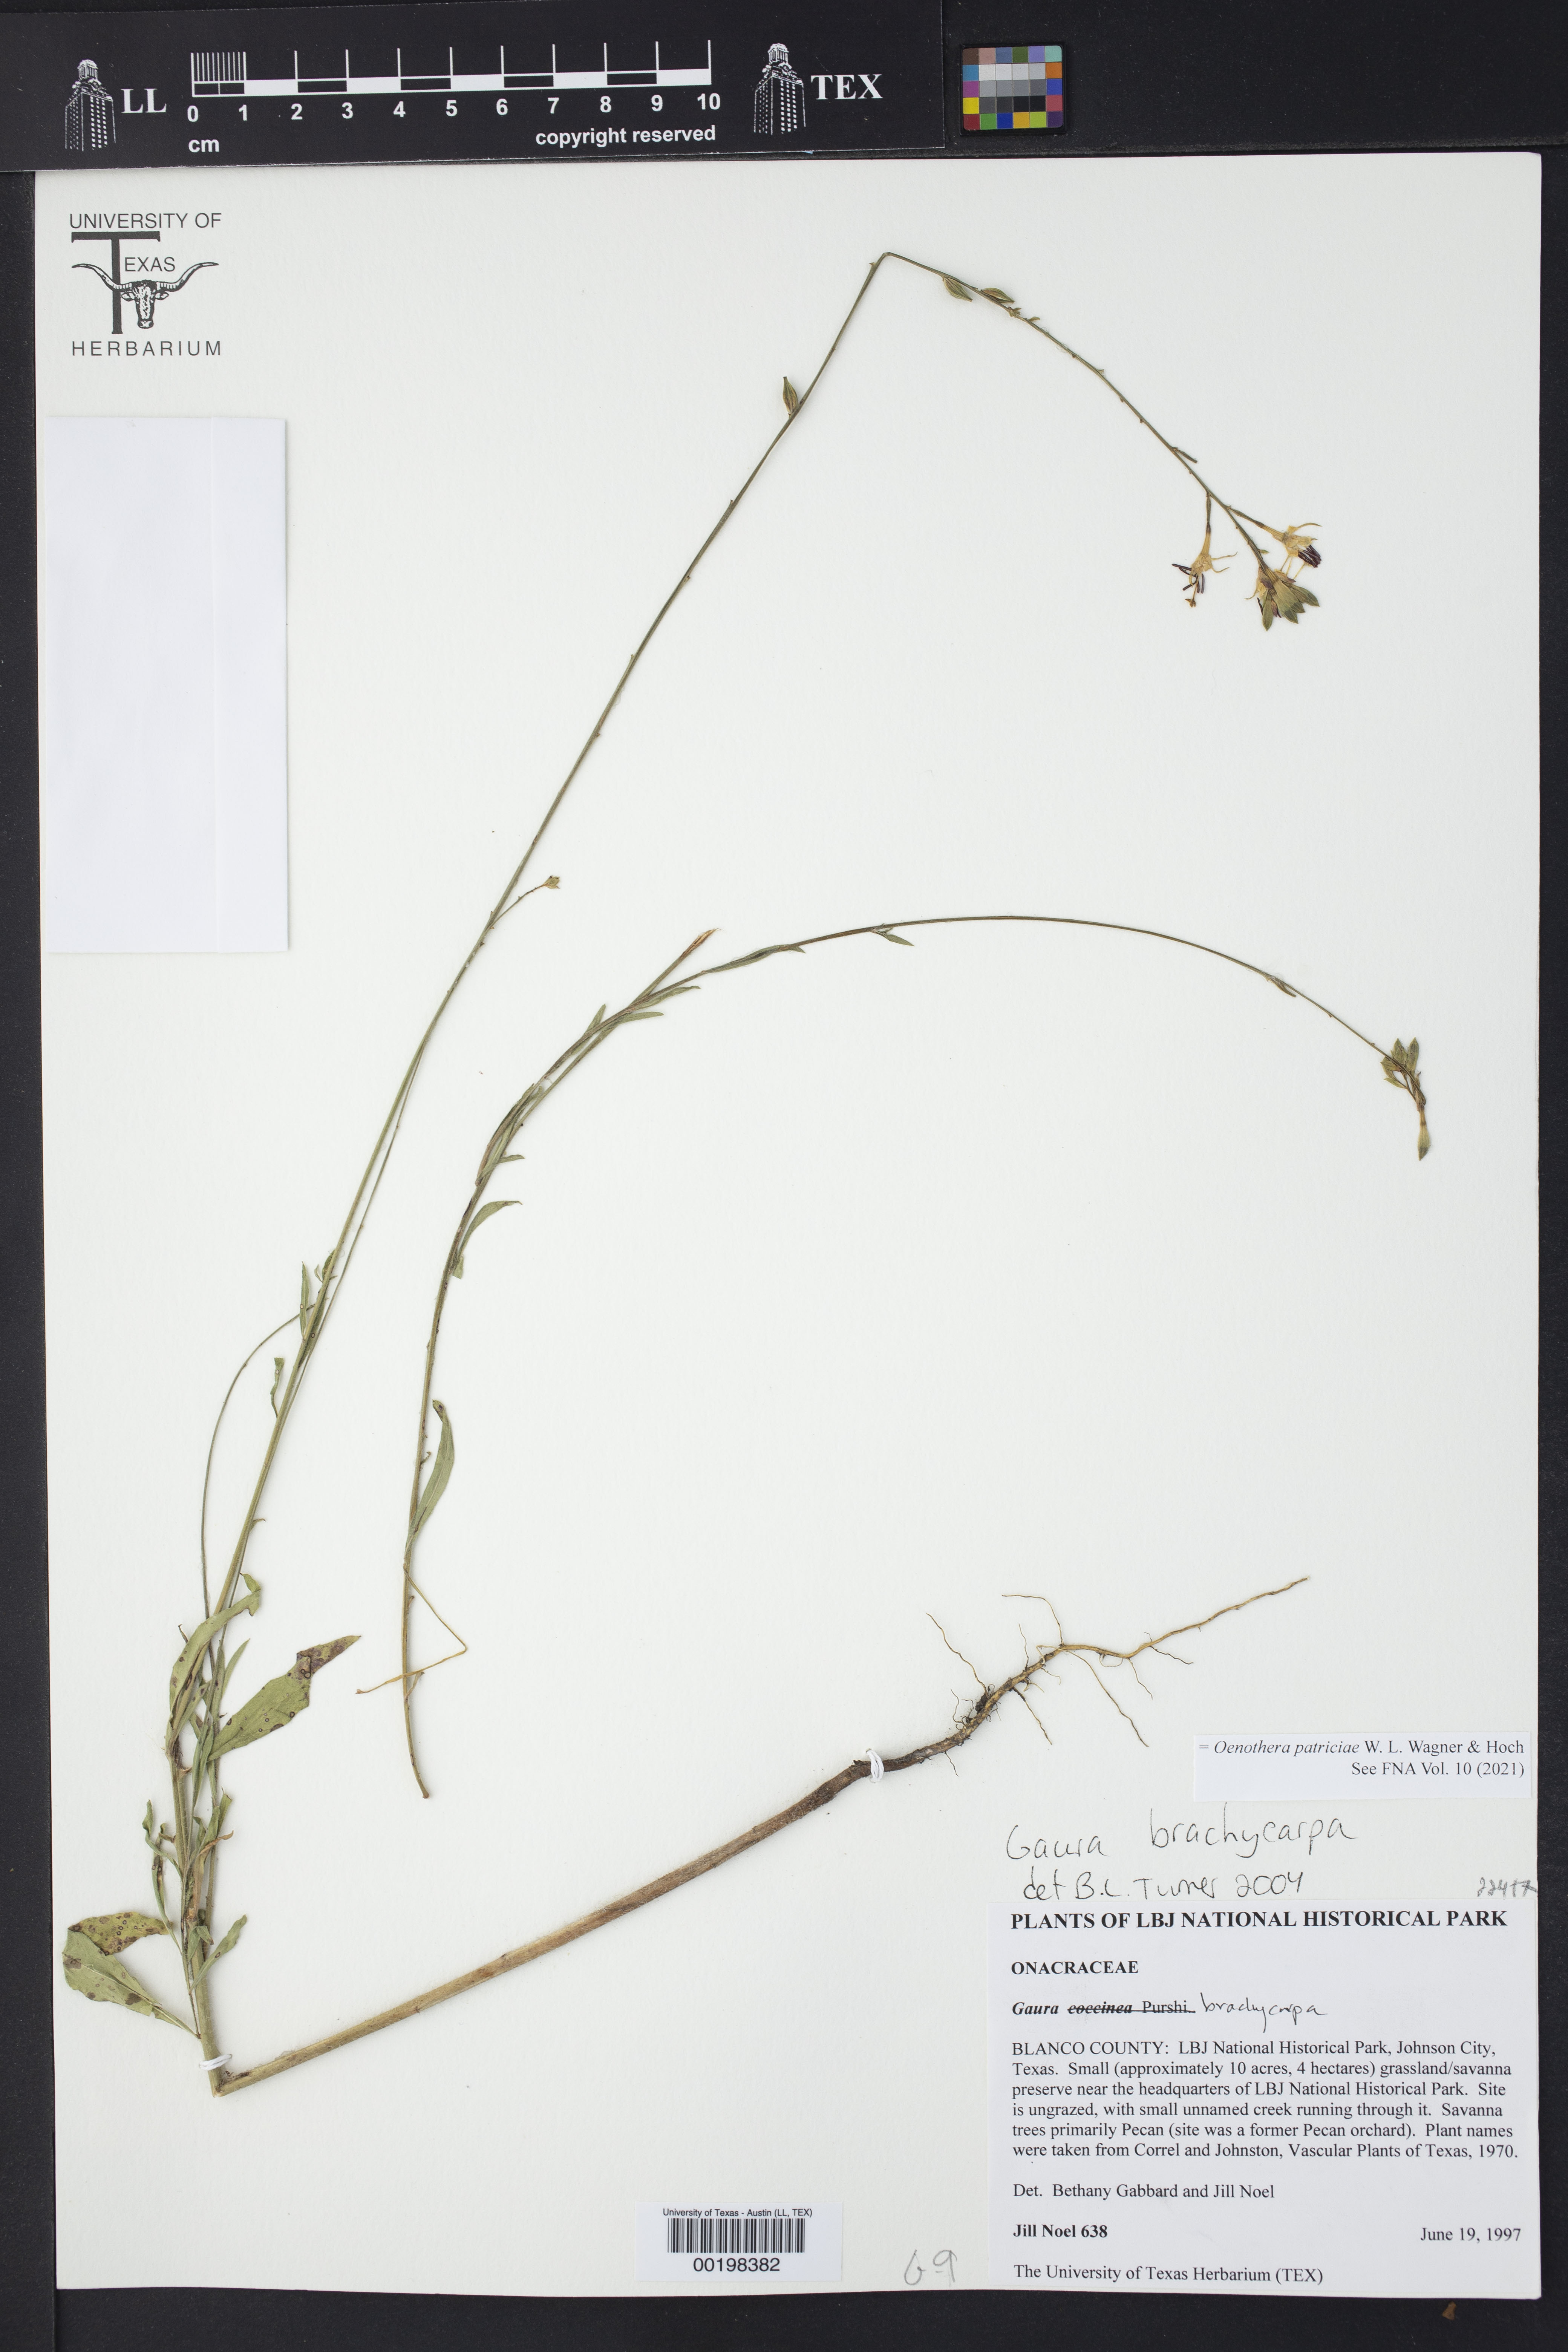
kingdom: Plantae
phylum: Tracheophyta
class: Magnoliopsida
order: Myrtales
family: Onagraceae
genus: Oenothera
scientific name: Oenothera patriciae
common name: Plains beeblossom
